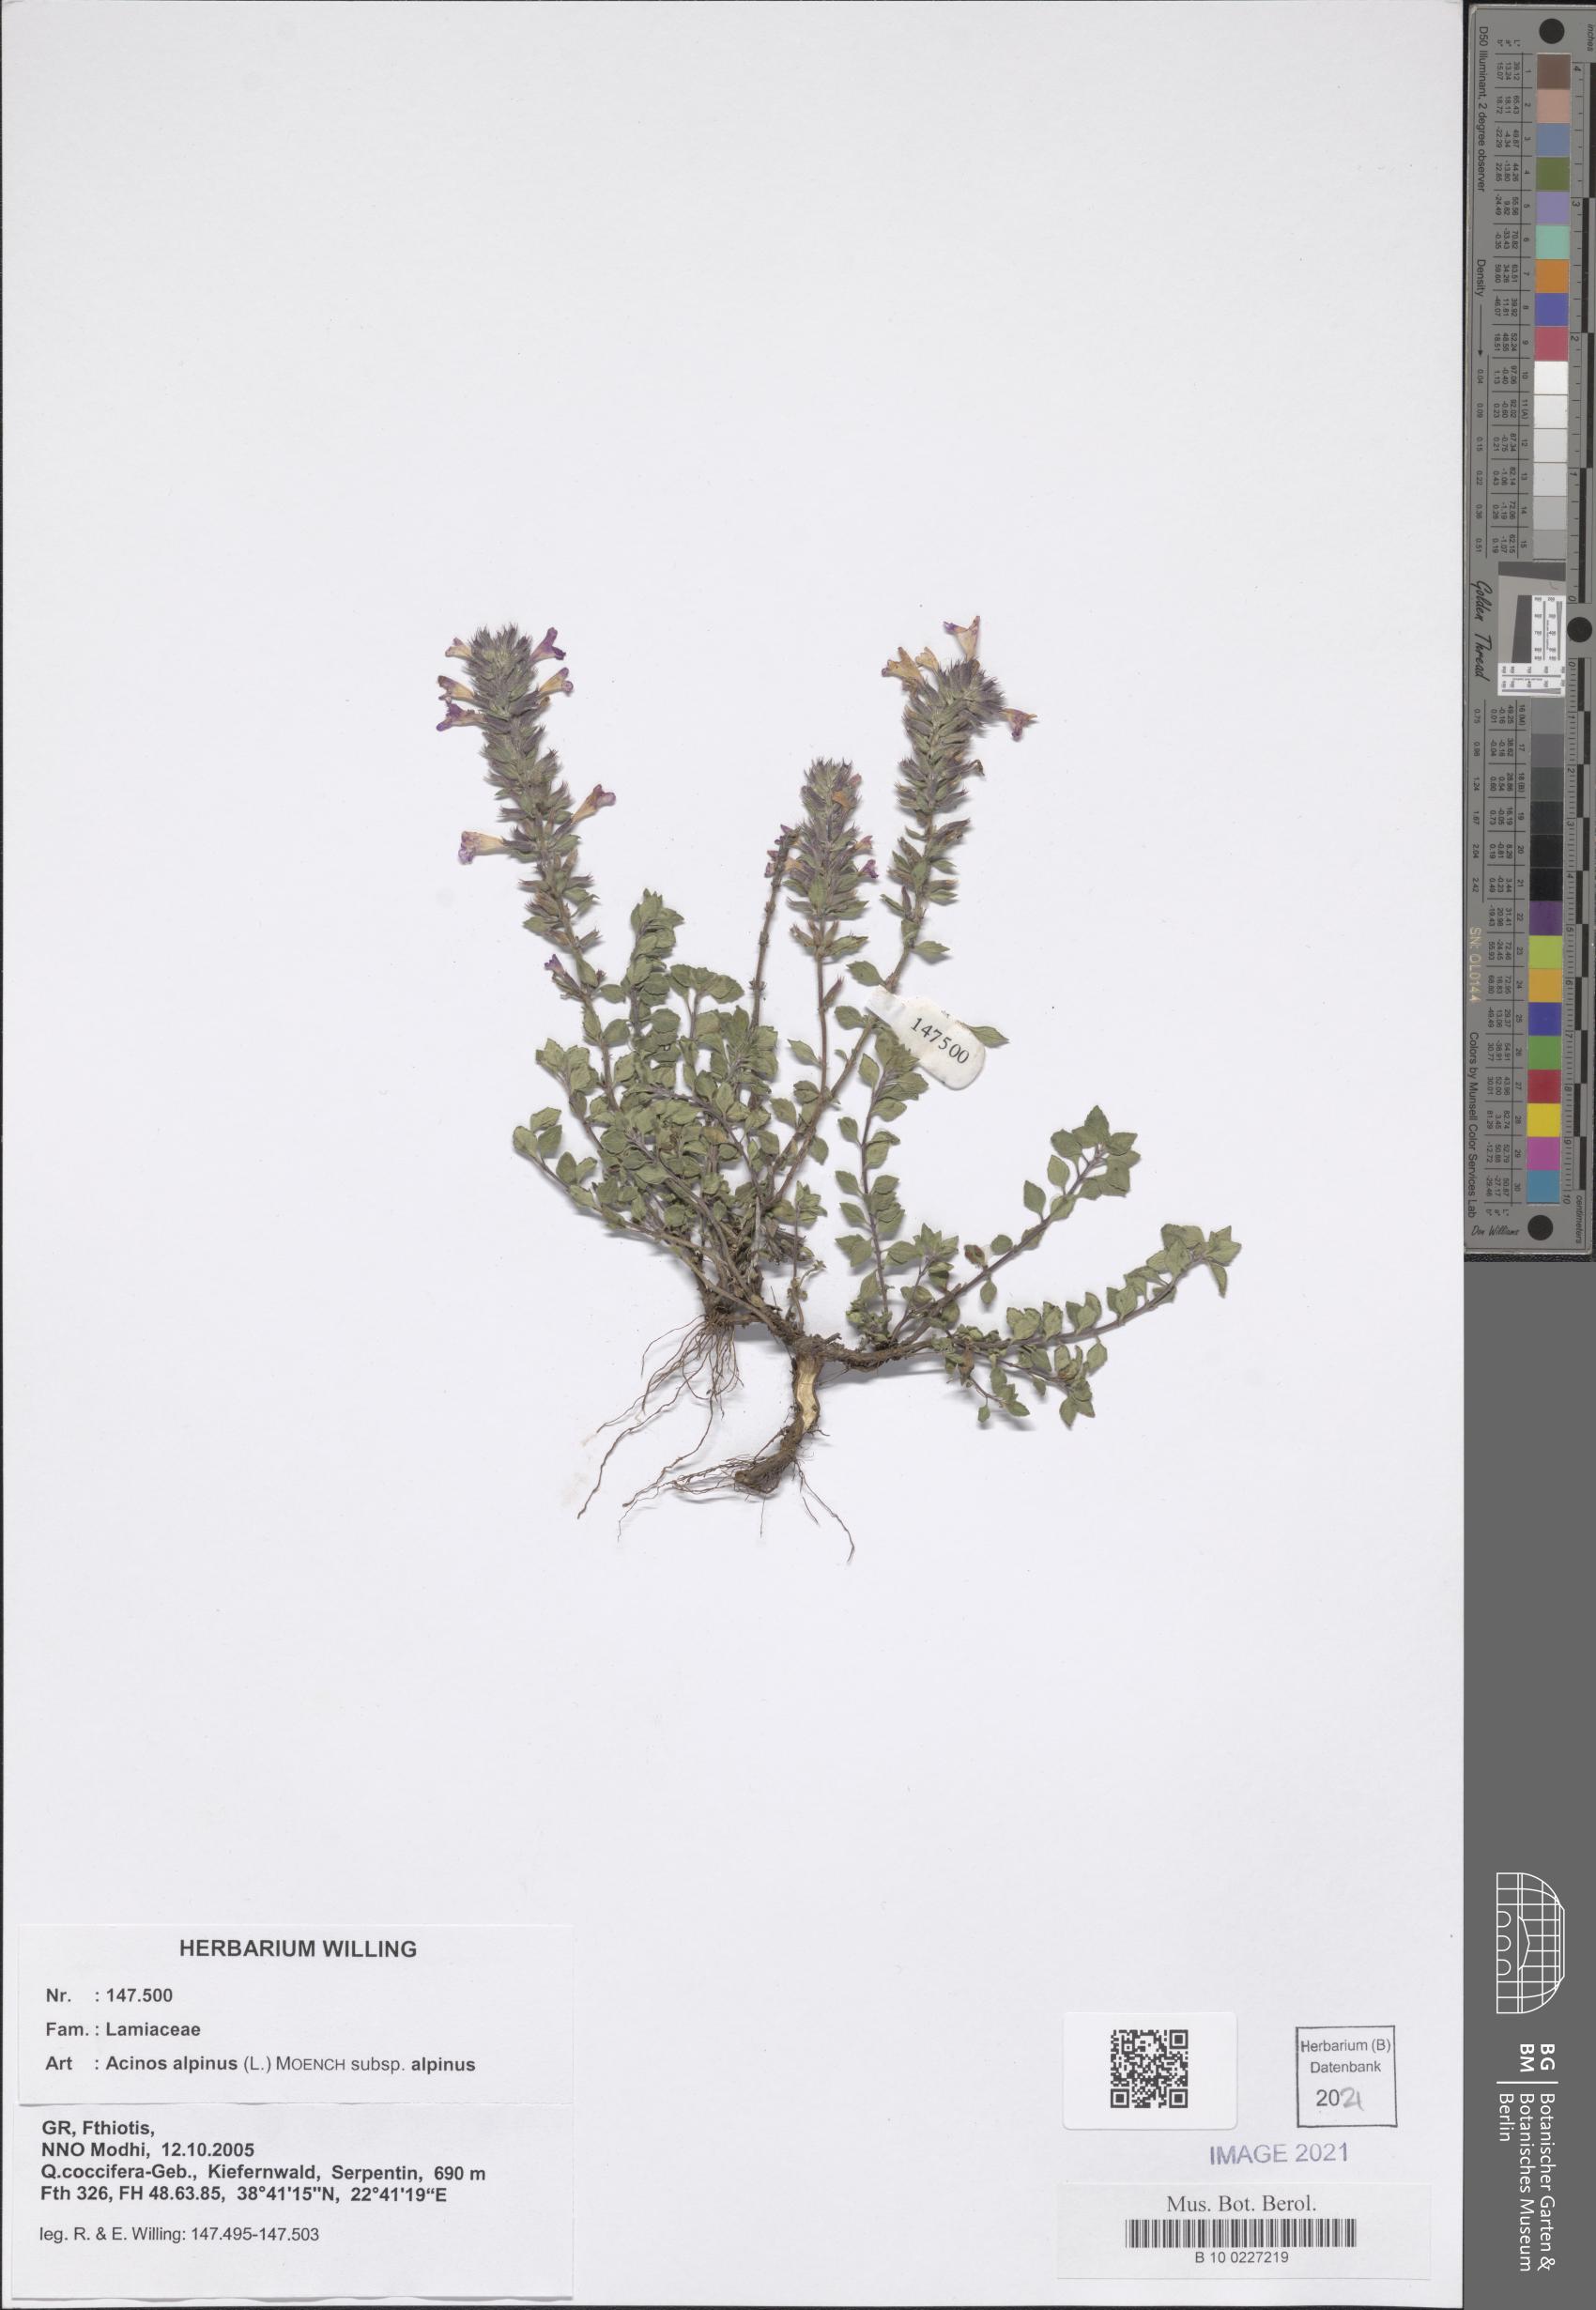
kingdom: Plantae
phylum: Tracheophyta
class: Magnoliopsida
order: Lamiales
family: Lamiaceae
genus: Clinopodium
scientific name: Clinopodium alpinum
